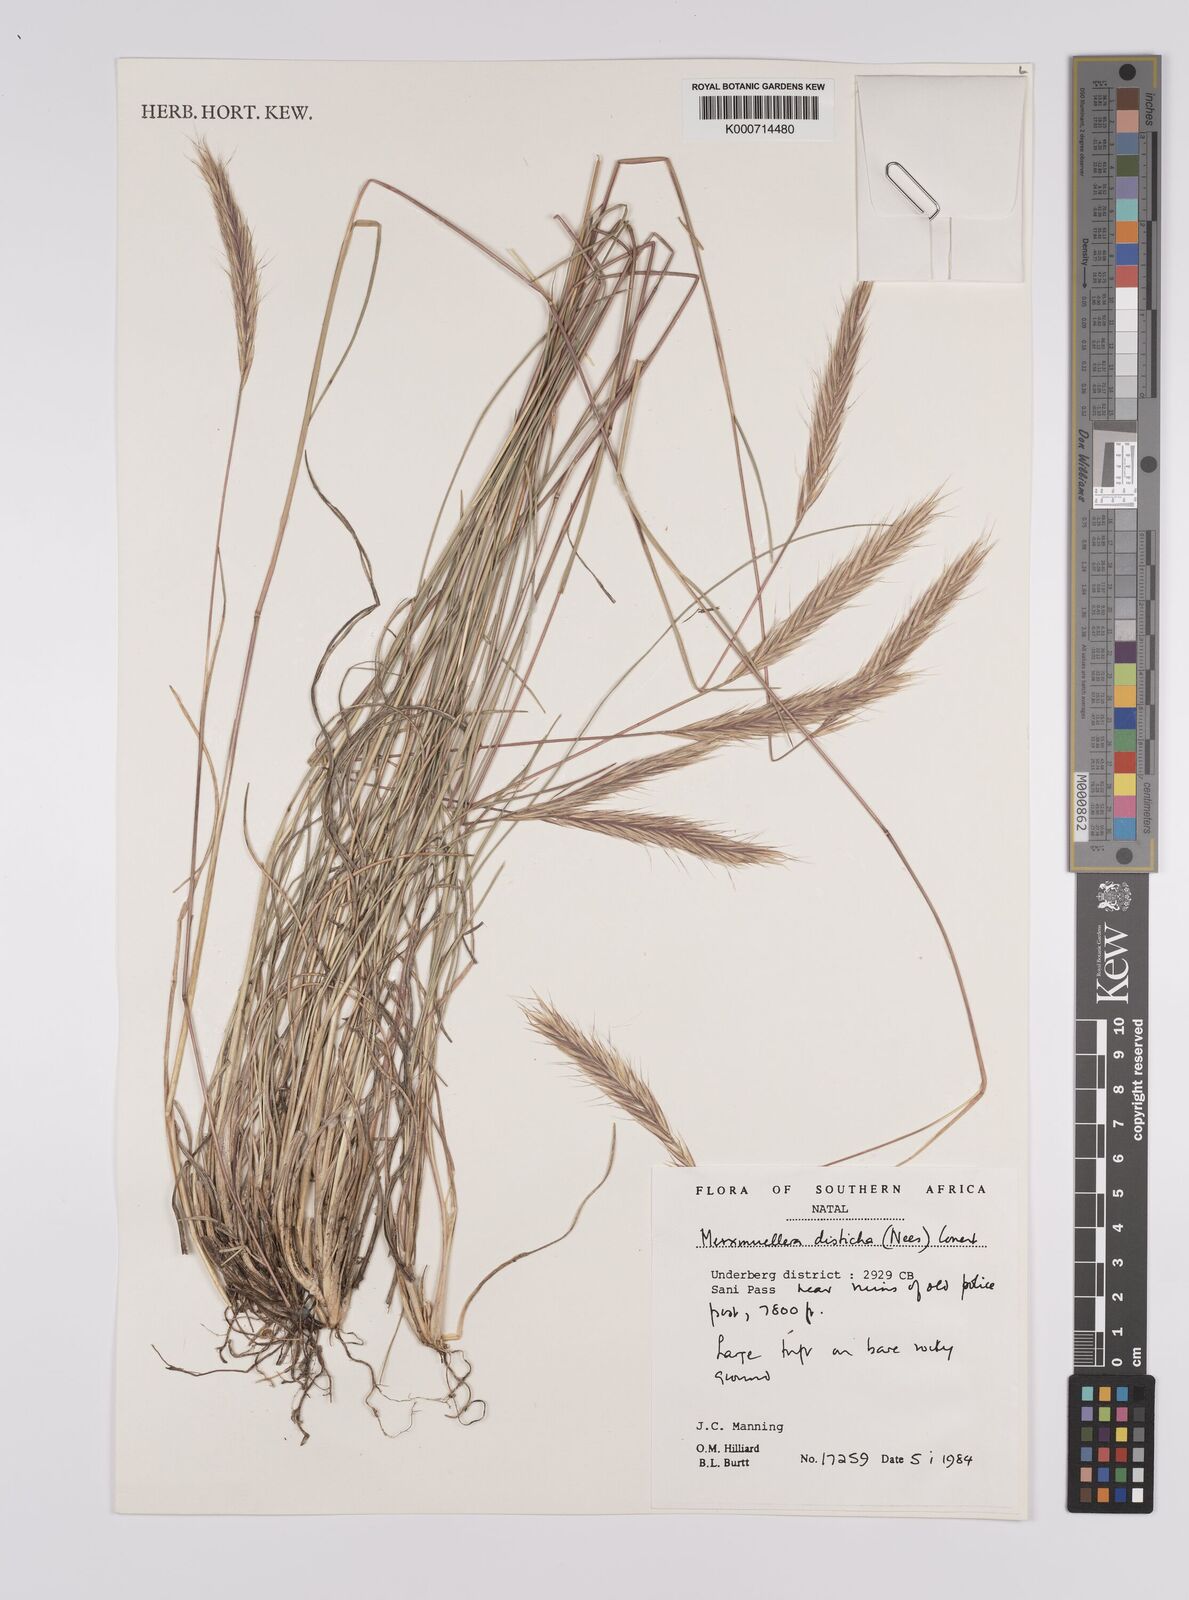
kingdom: Plantae
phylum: Tracheophyta
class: Liliopsida
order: Poales
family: Poaceae
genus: Tenaxia
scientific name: Tenaxia disticha
